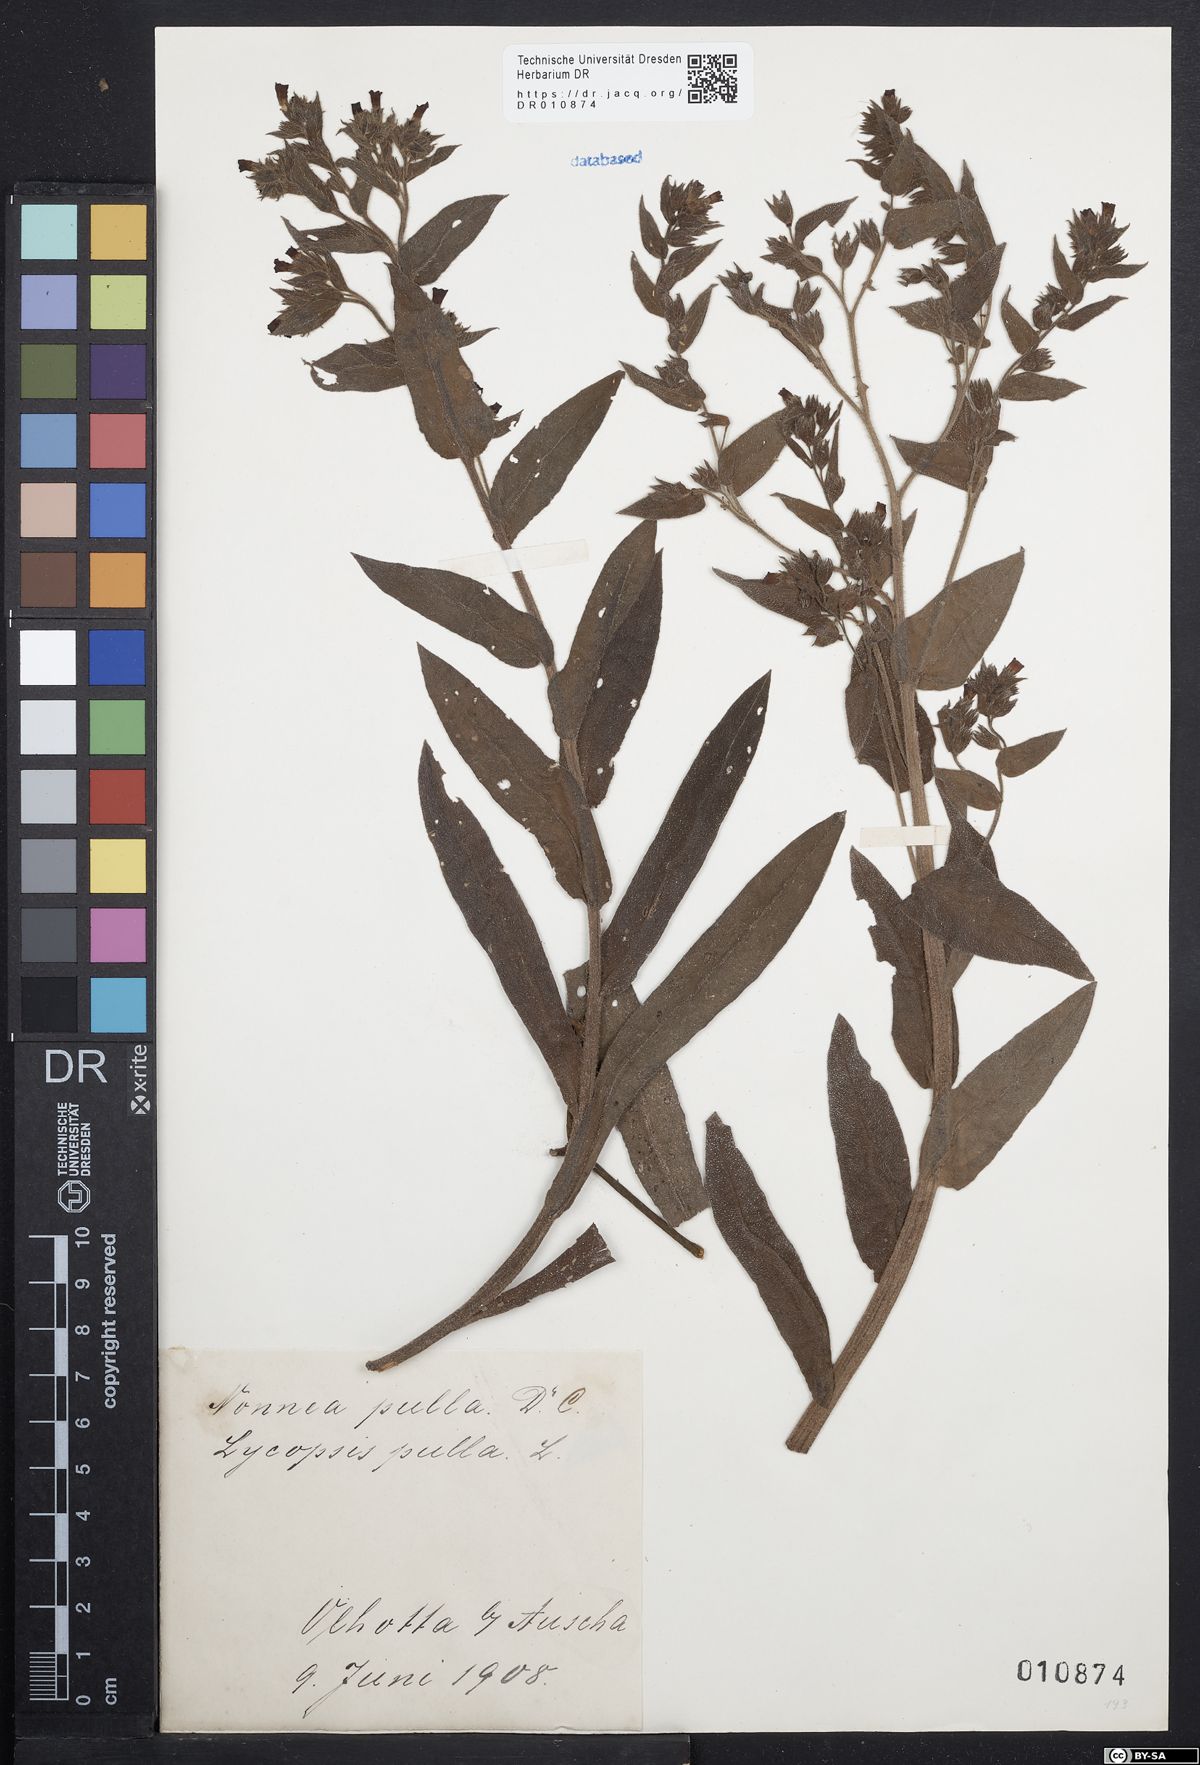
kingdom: Plantae
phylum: Tracheophyta
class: Magnoliopsida
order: Boraginales
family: Boraginaceae
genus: Nonea
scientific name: Nonea pulla
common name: Brown nonea
